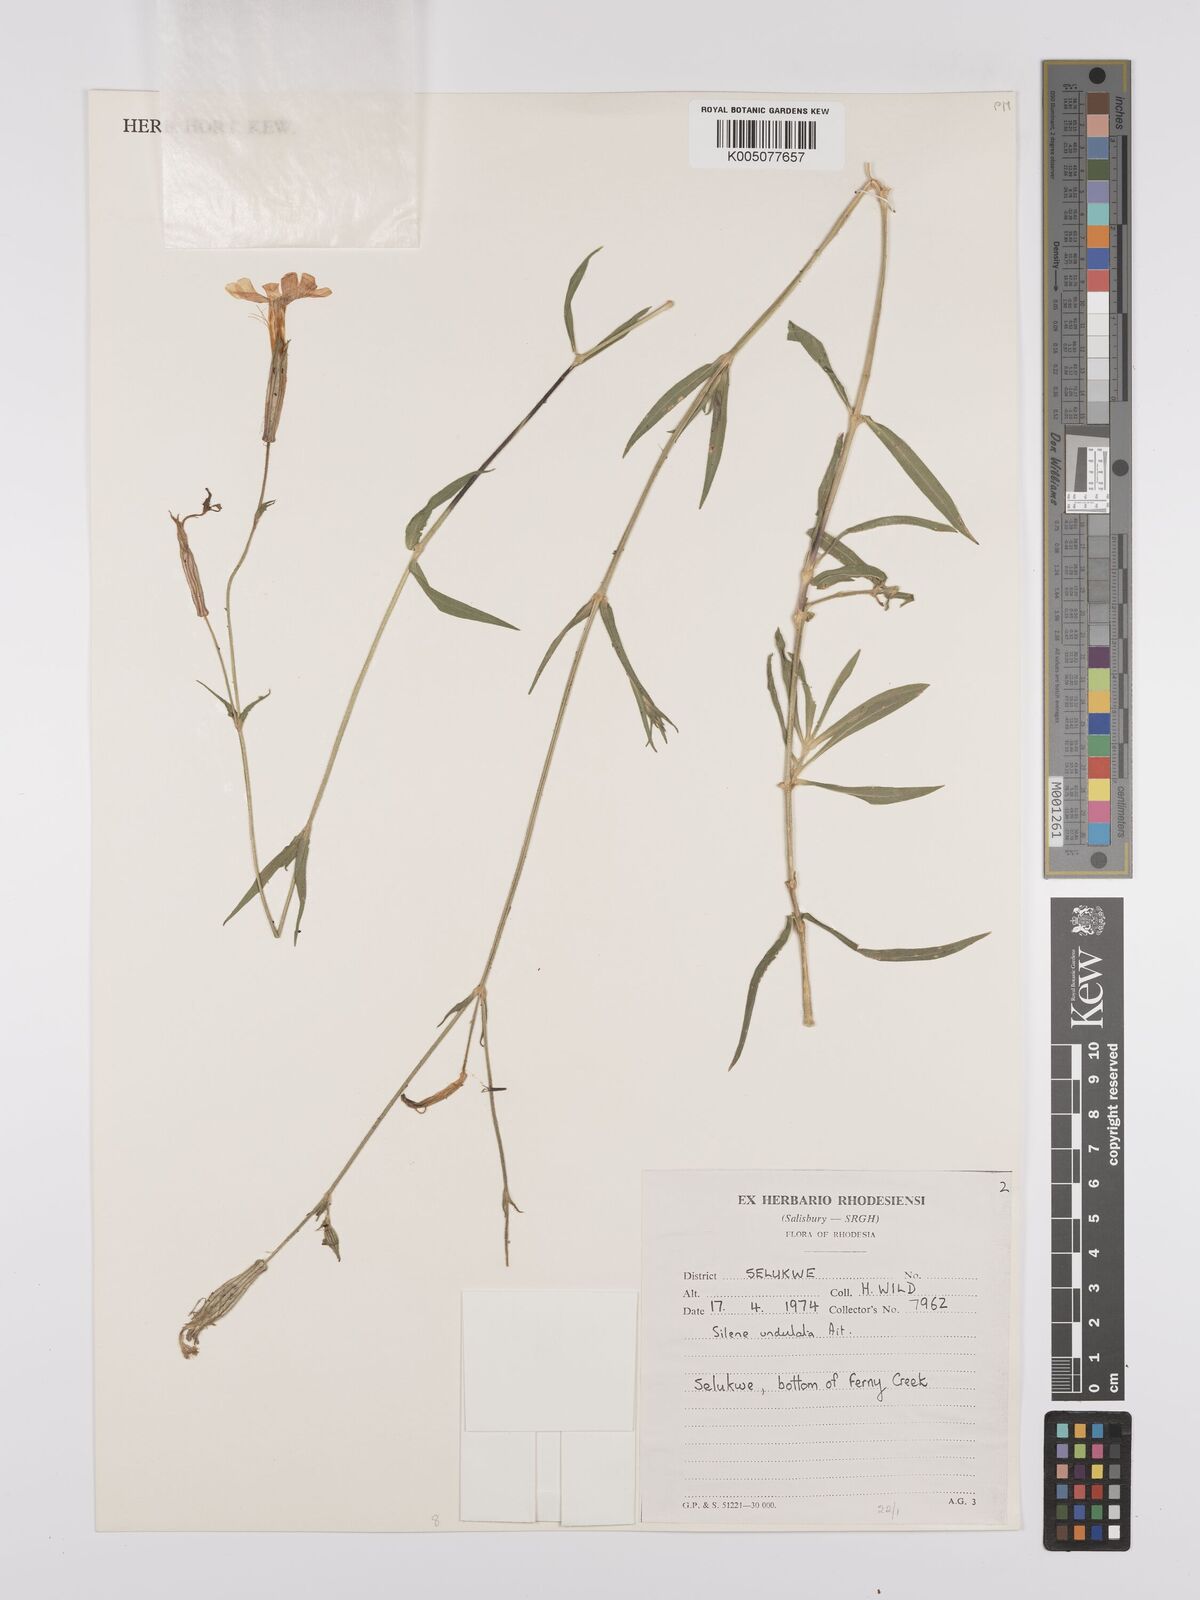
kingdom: Plantae
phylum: Tracheophyta
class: Magnoliopsida
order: Caryophyllales
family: Caryophyllaceae
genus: Silene
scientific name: Silene burchellii
